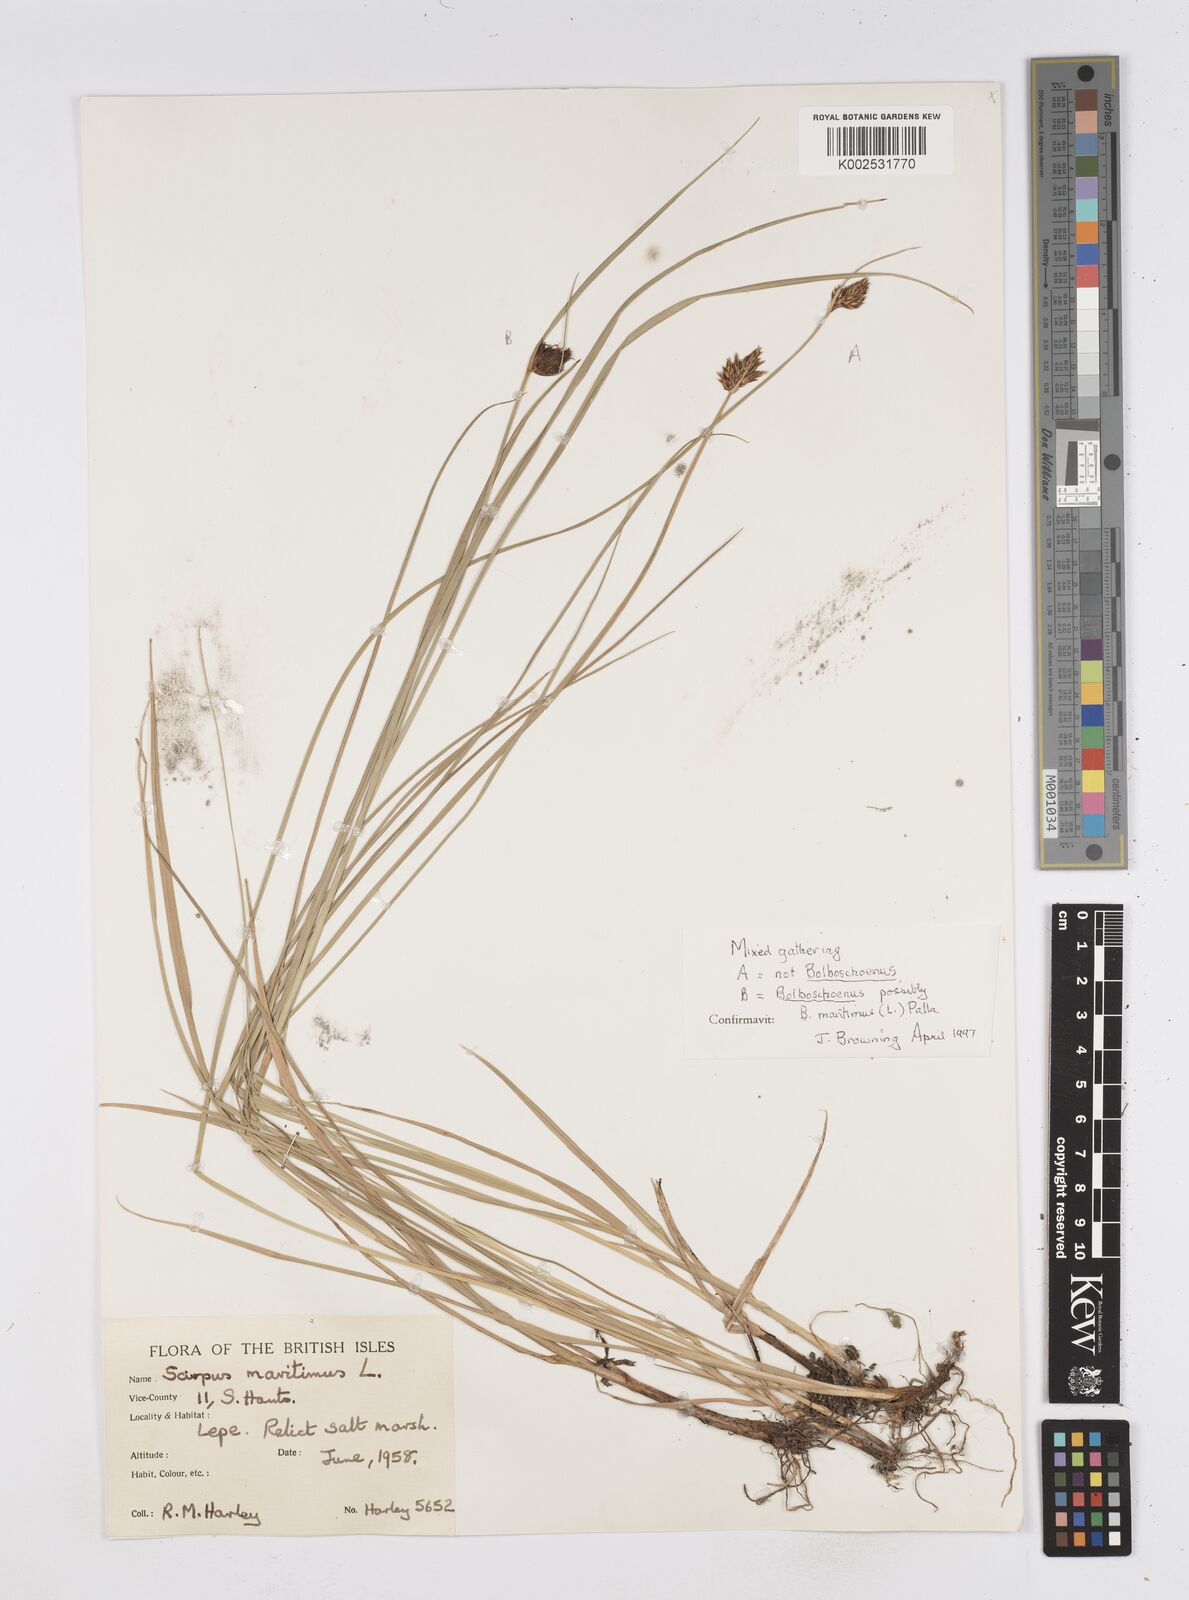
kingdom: Plantae
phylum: Tracheophyta
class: Liliopsida
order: Poales
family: Cyperaceae
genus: Bolboschoenus
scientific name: Bolboschoenus maritimus
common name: Sea club-rush
